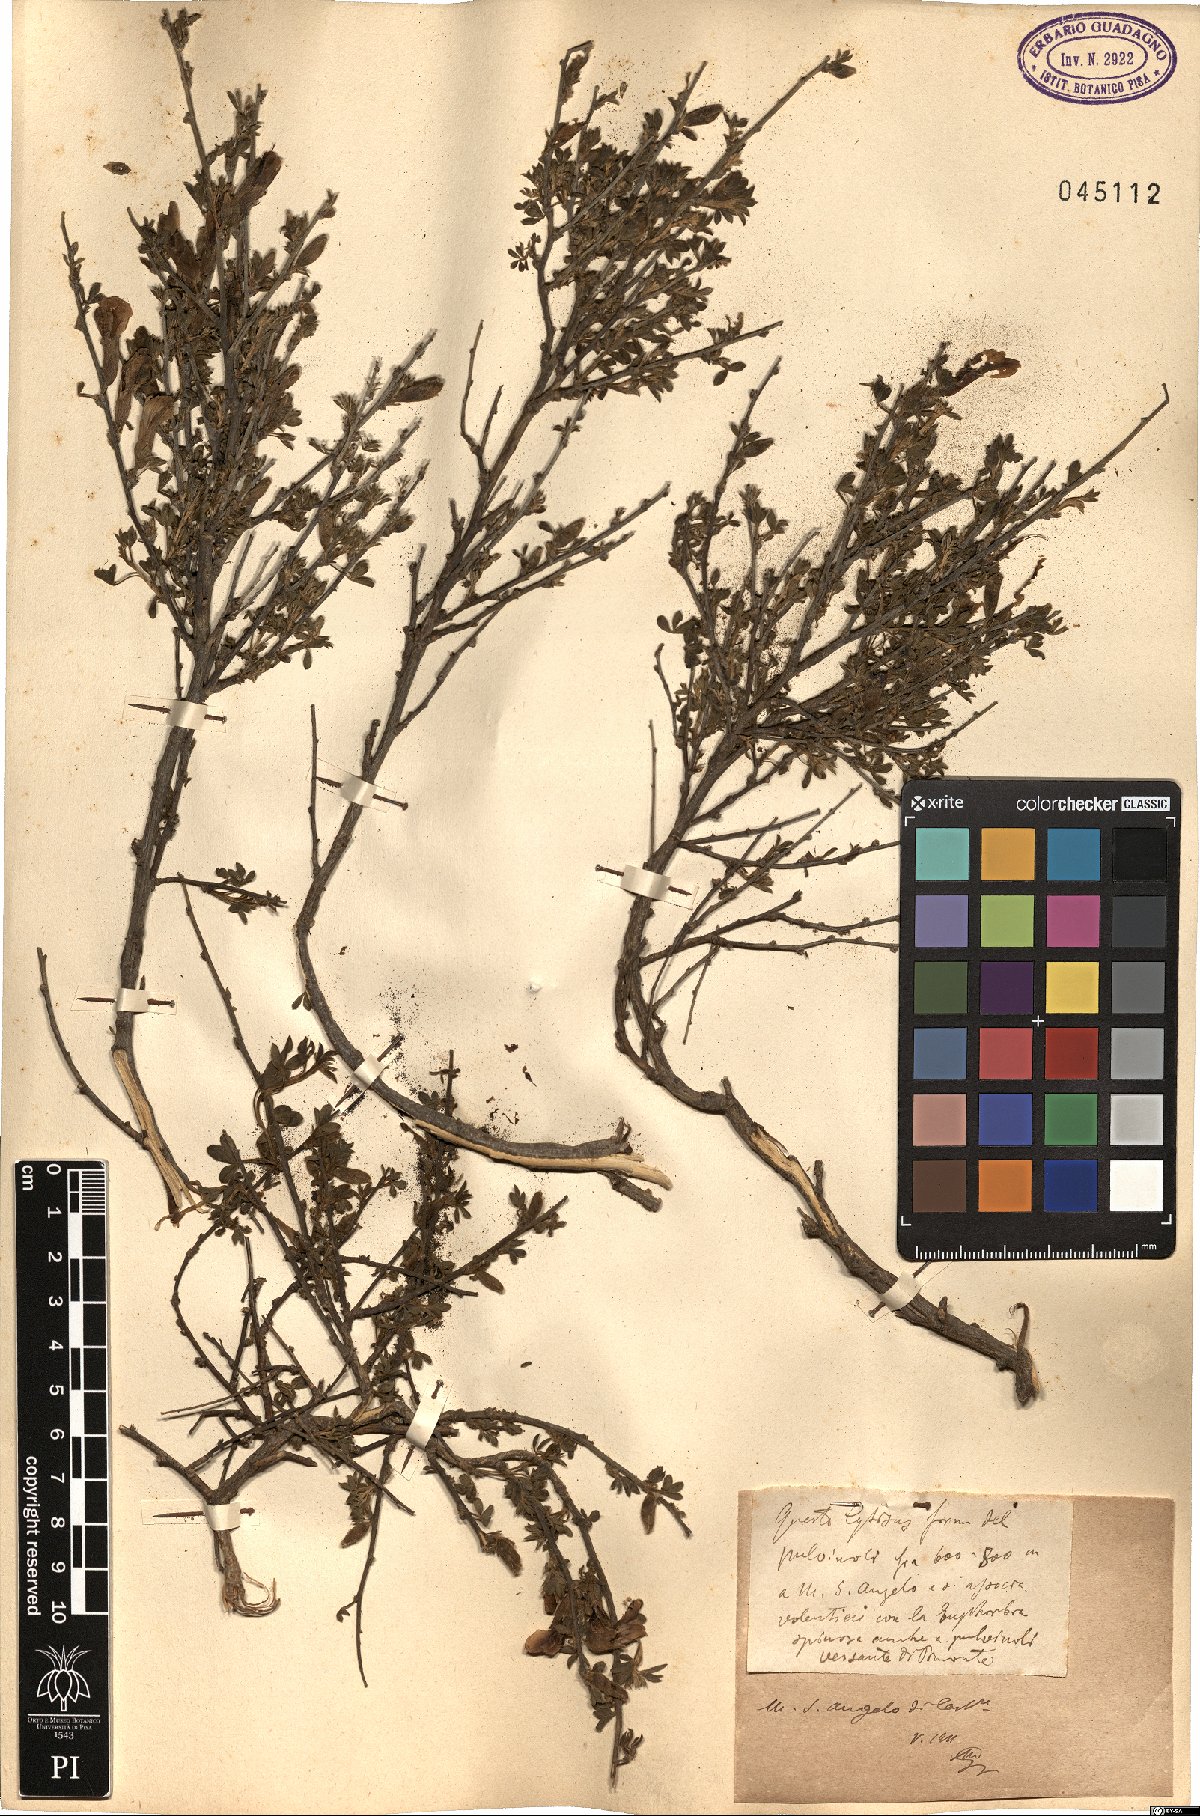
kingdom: Plantae
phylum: Tracheophyta
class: Magnoliopsida
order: Fabales
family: Fabaceae
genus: Cytisus
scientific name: Cytisus
